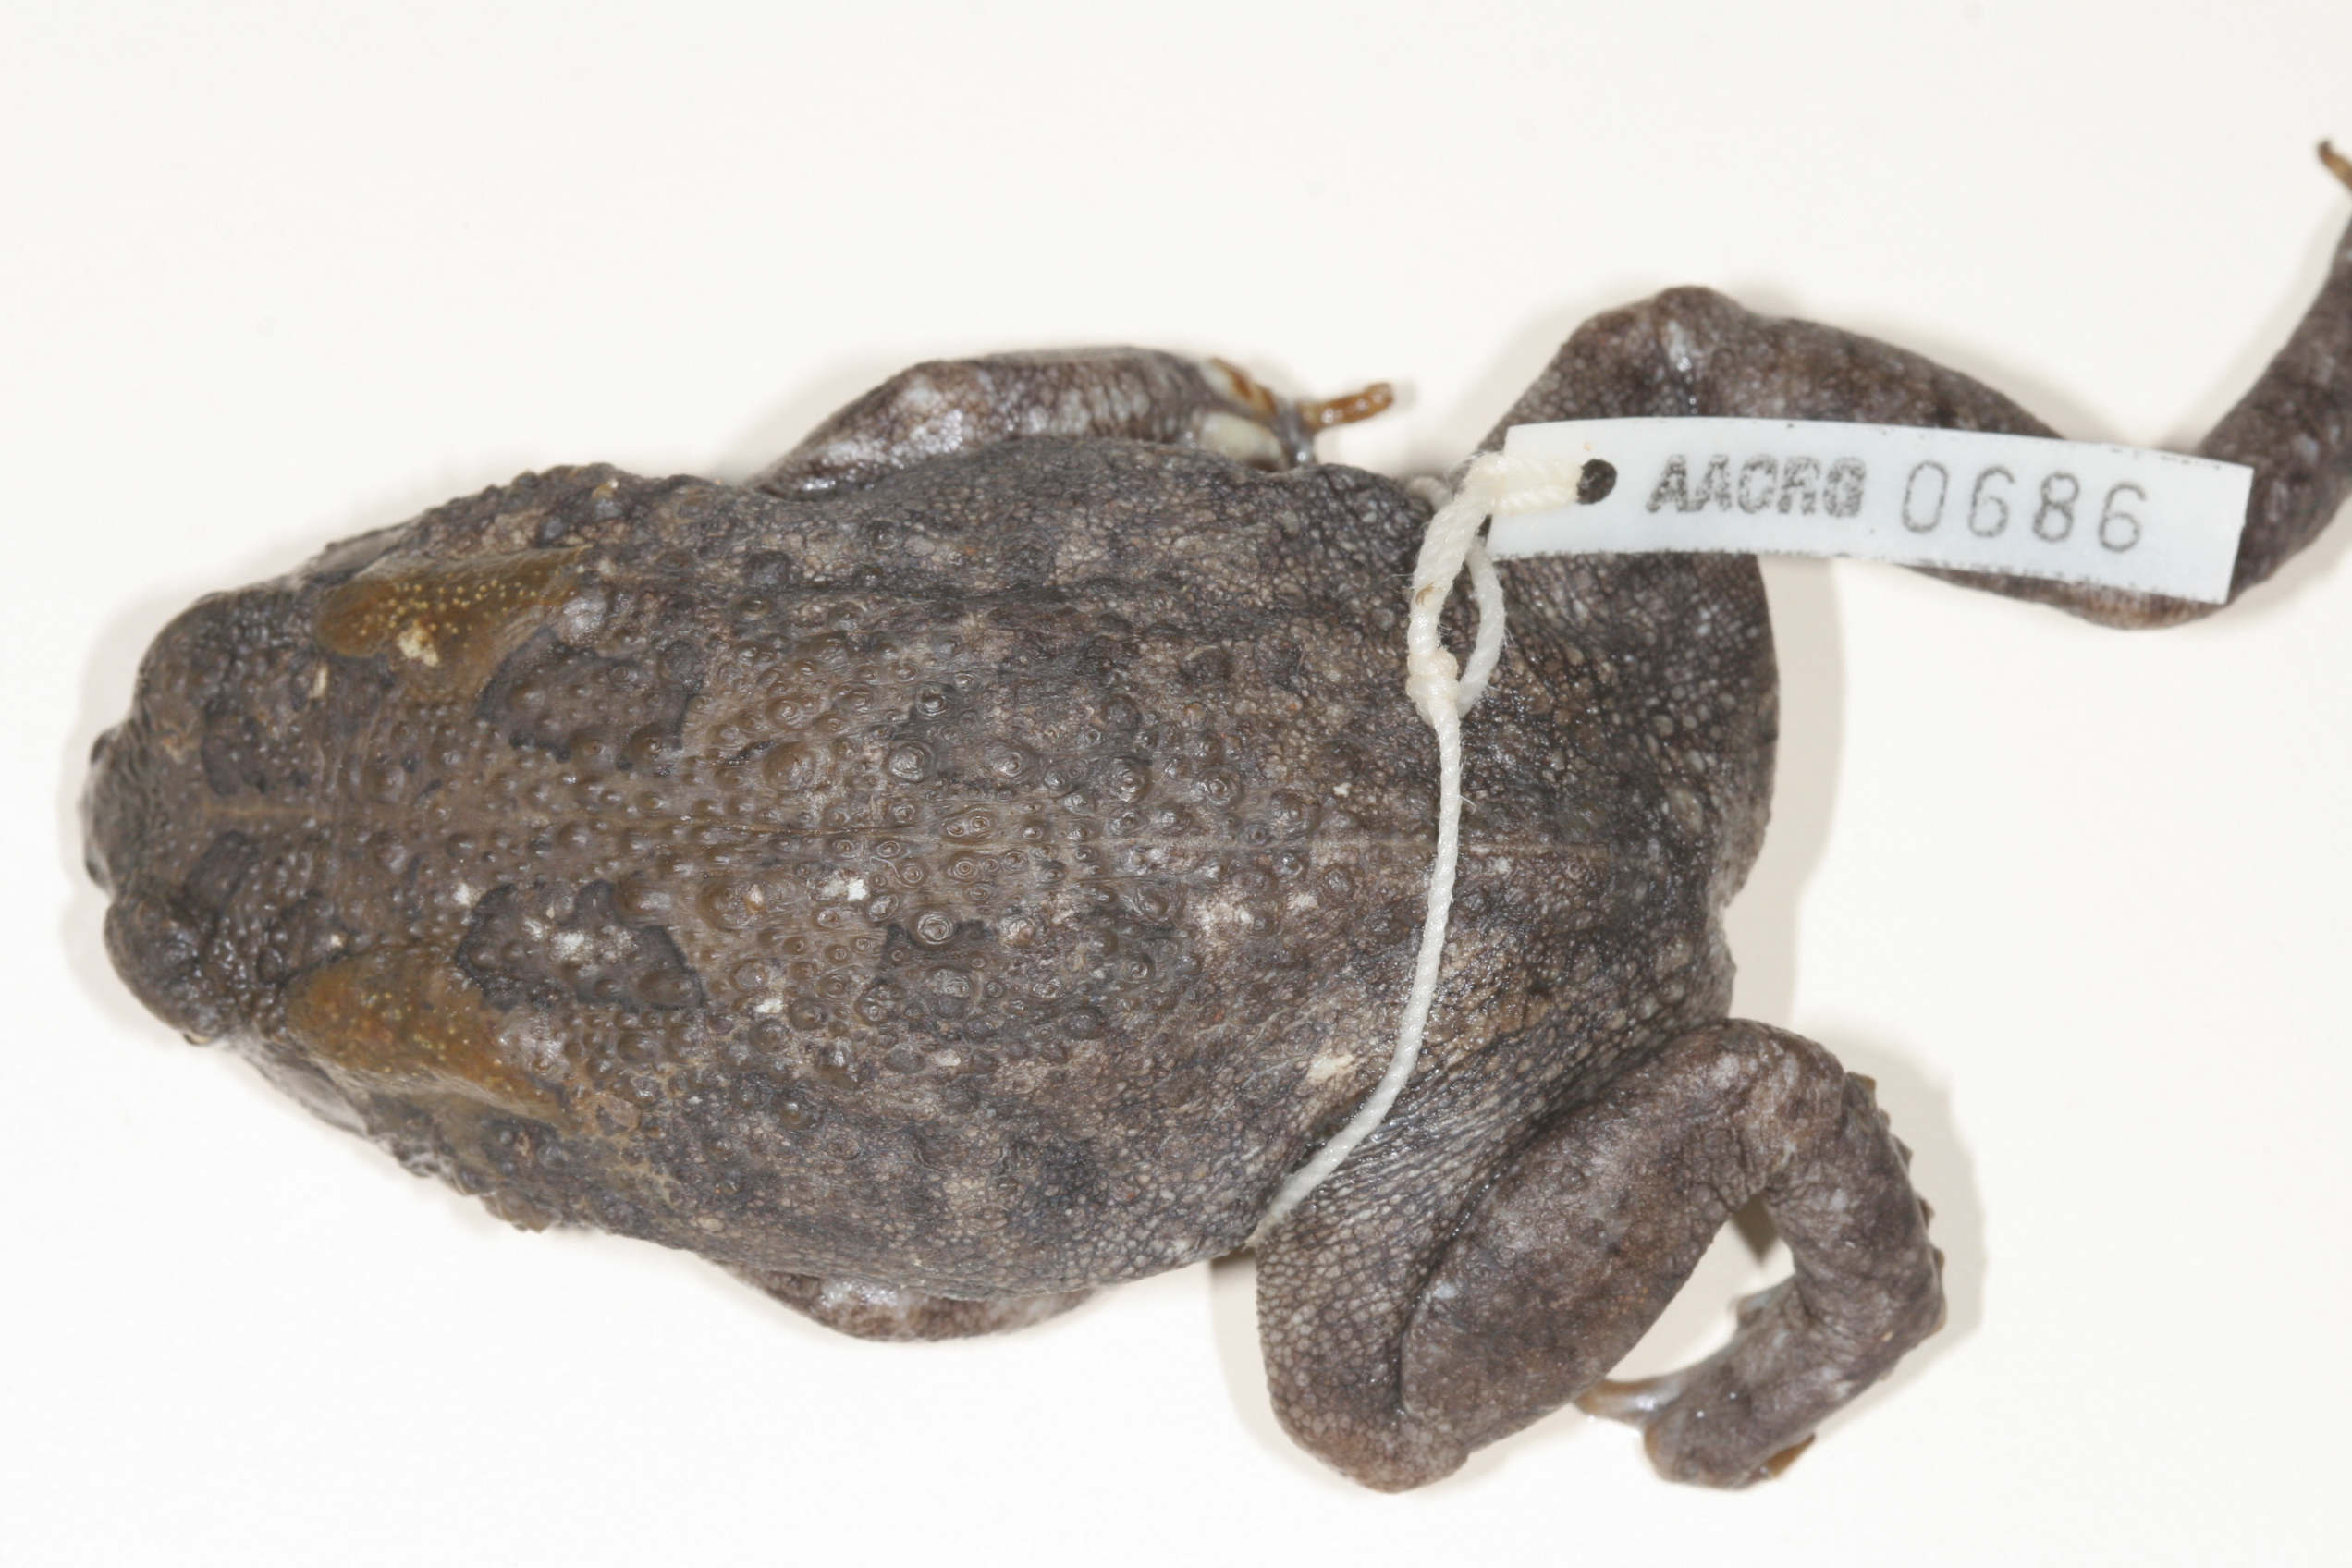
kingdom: Animalia
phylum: Chordata
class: Amphibia
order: Anura
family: Bufonidae
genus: Sclerophrys
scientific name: Sclerophrys garmani
